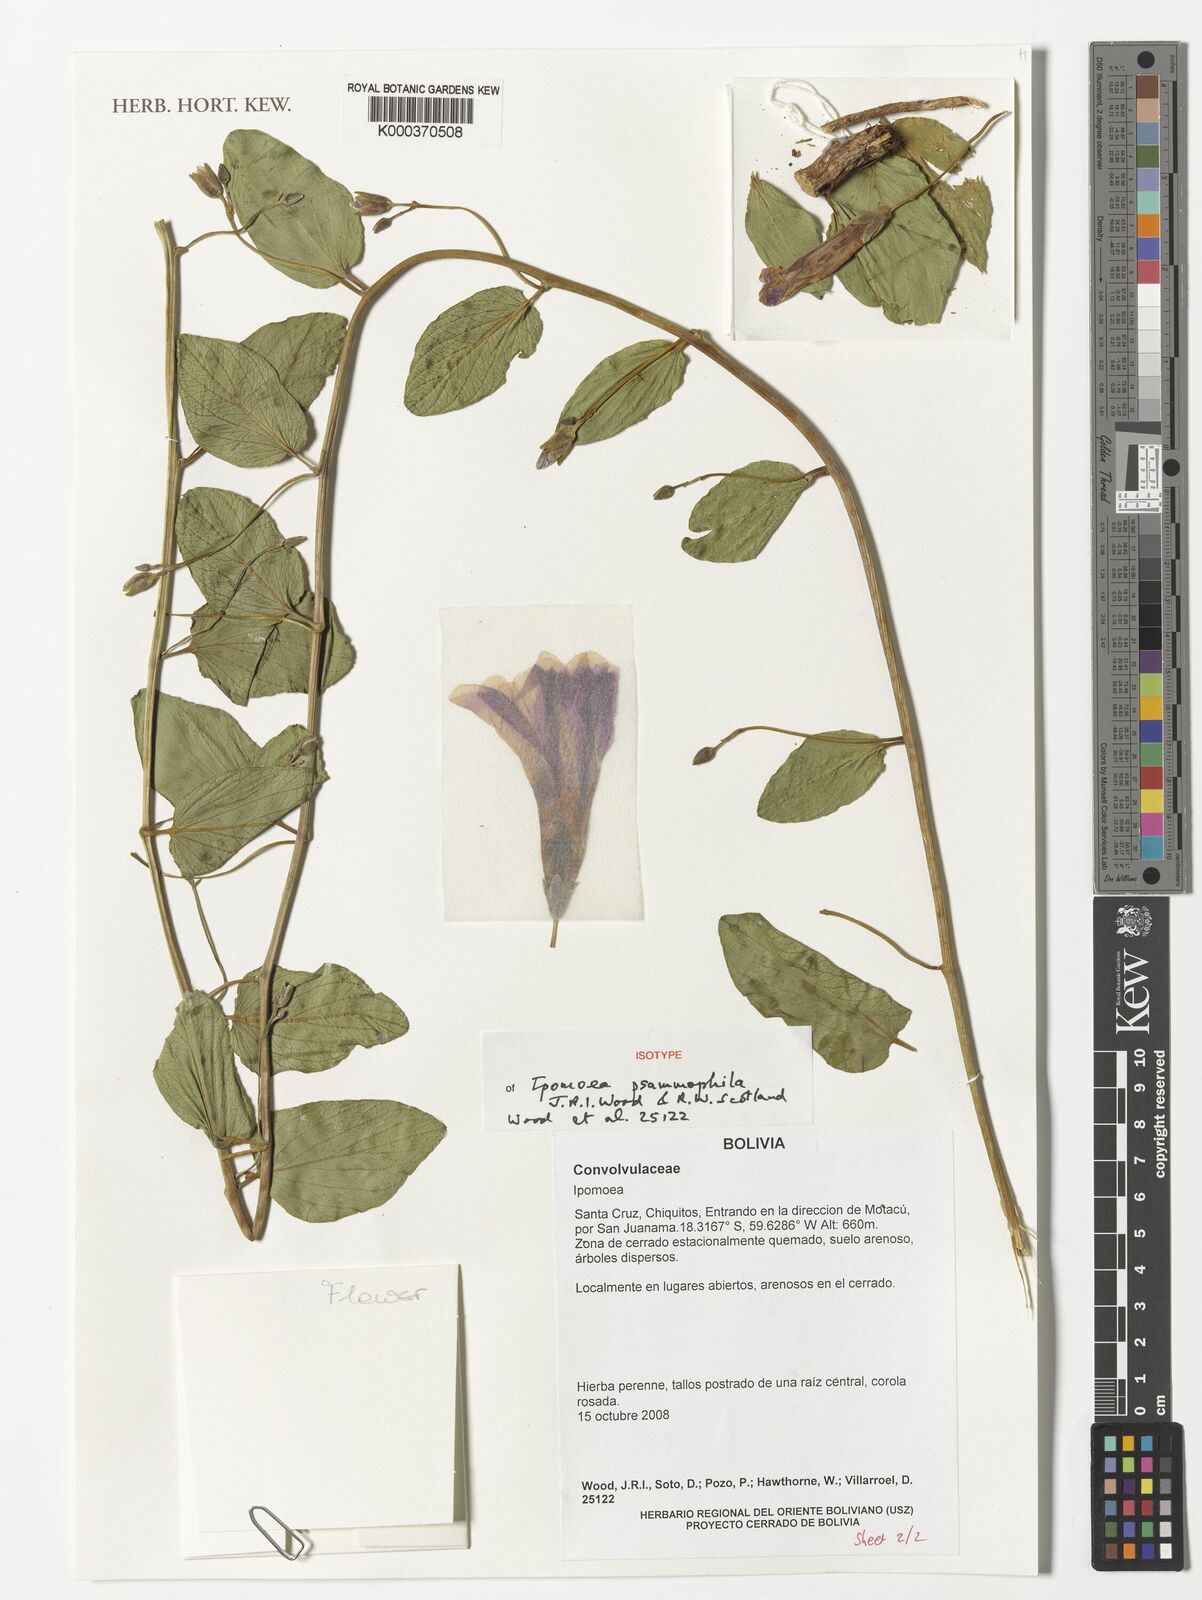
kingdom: Plantae
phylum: Tracheophyta
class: Magnoliopsida
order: Solanales
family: Convolvulaceae
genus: Ipomoea
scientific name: Ipomoea psammophila
